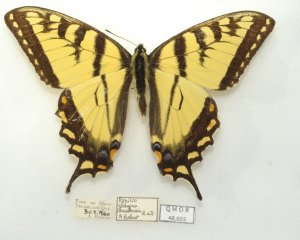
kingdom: Animalia
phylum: Arthropoda
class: Insecta
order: Lepidoptera
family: Papilionidae
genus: Pterourus
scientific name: Pterourus canadensis
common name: Canadian Tiger Swallowtail
